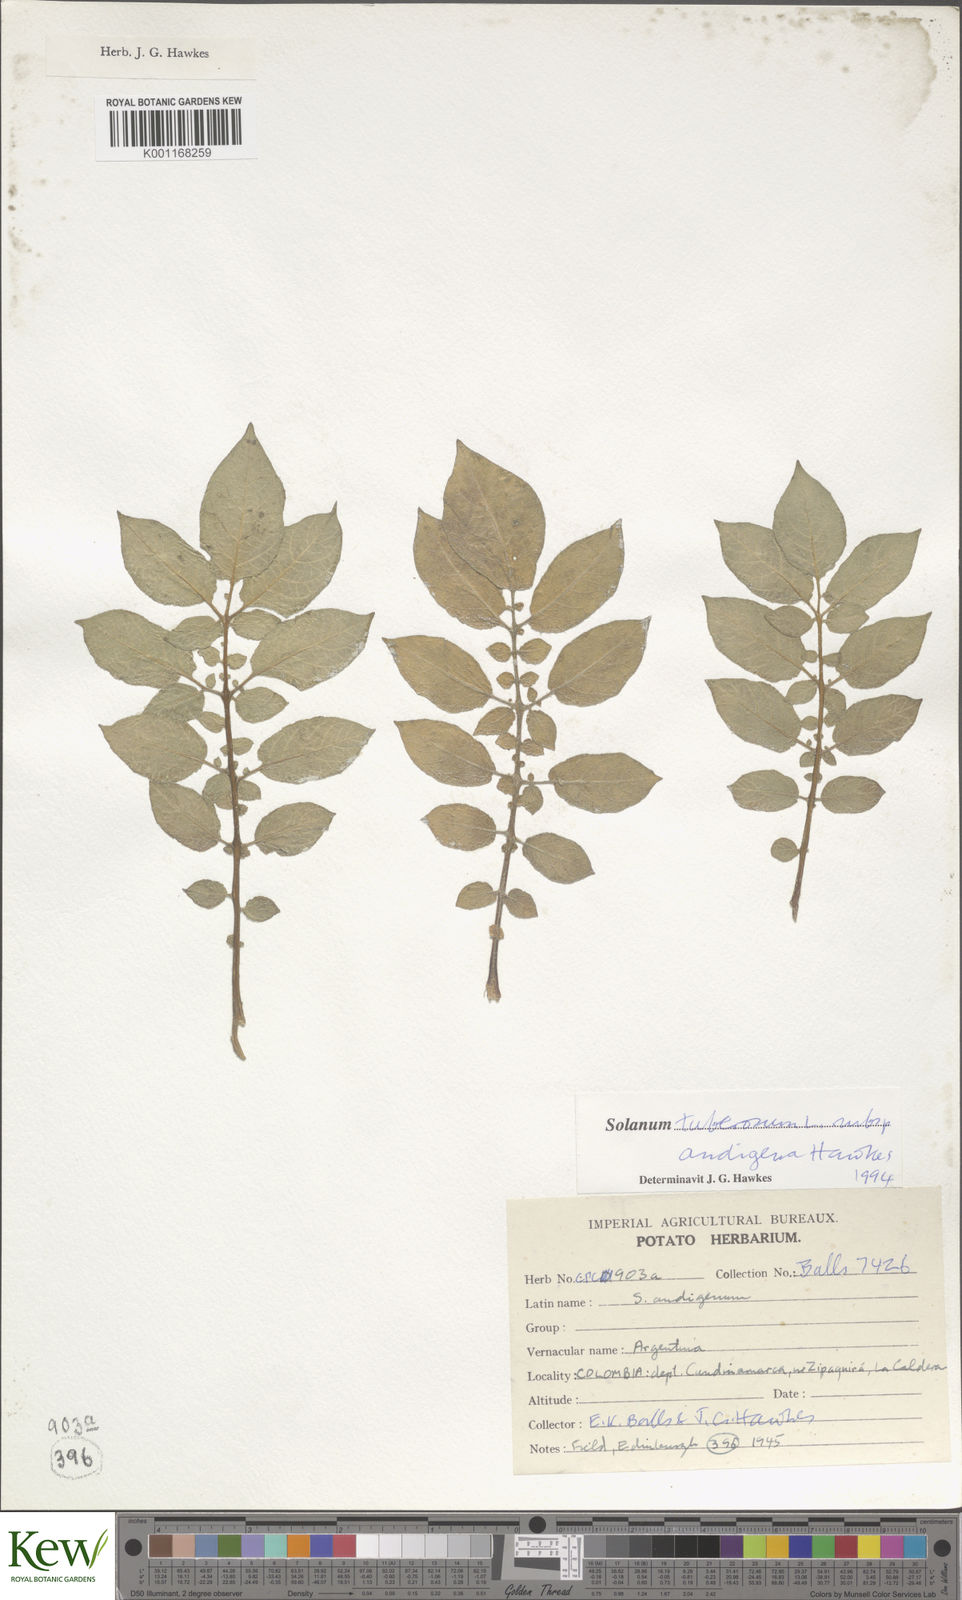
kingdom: Plantae
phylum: Tracheophyta
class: Magnoliopsida
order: Solanales
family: Solanaceae
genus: Solanum
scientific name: Solanum tuberosum
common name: Potato
